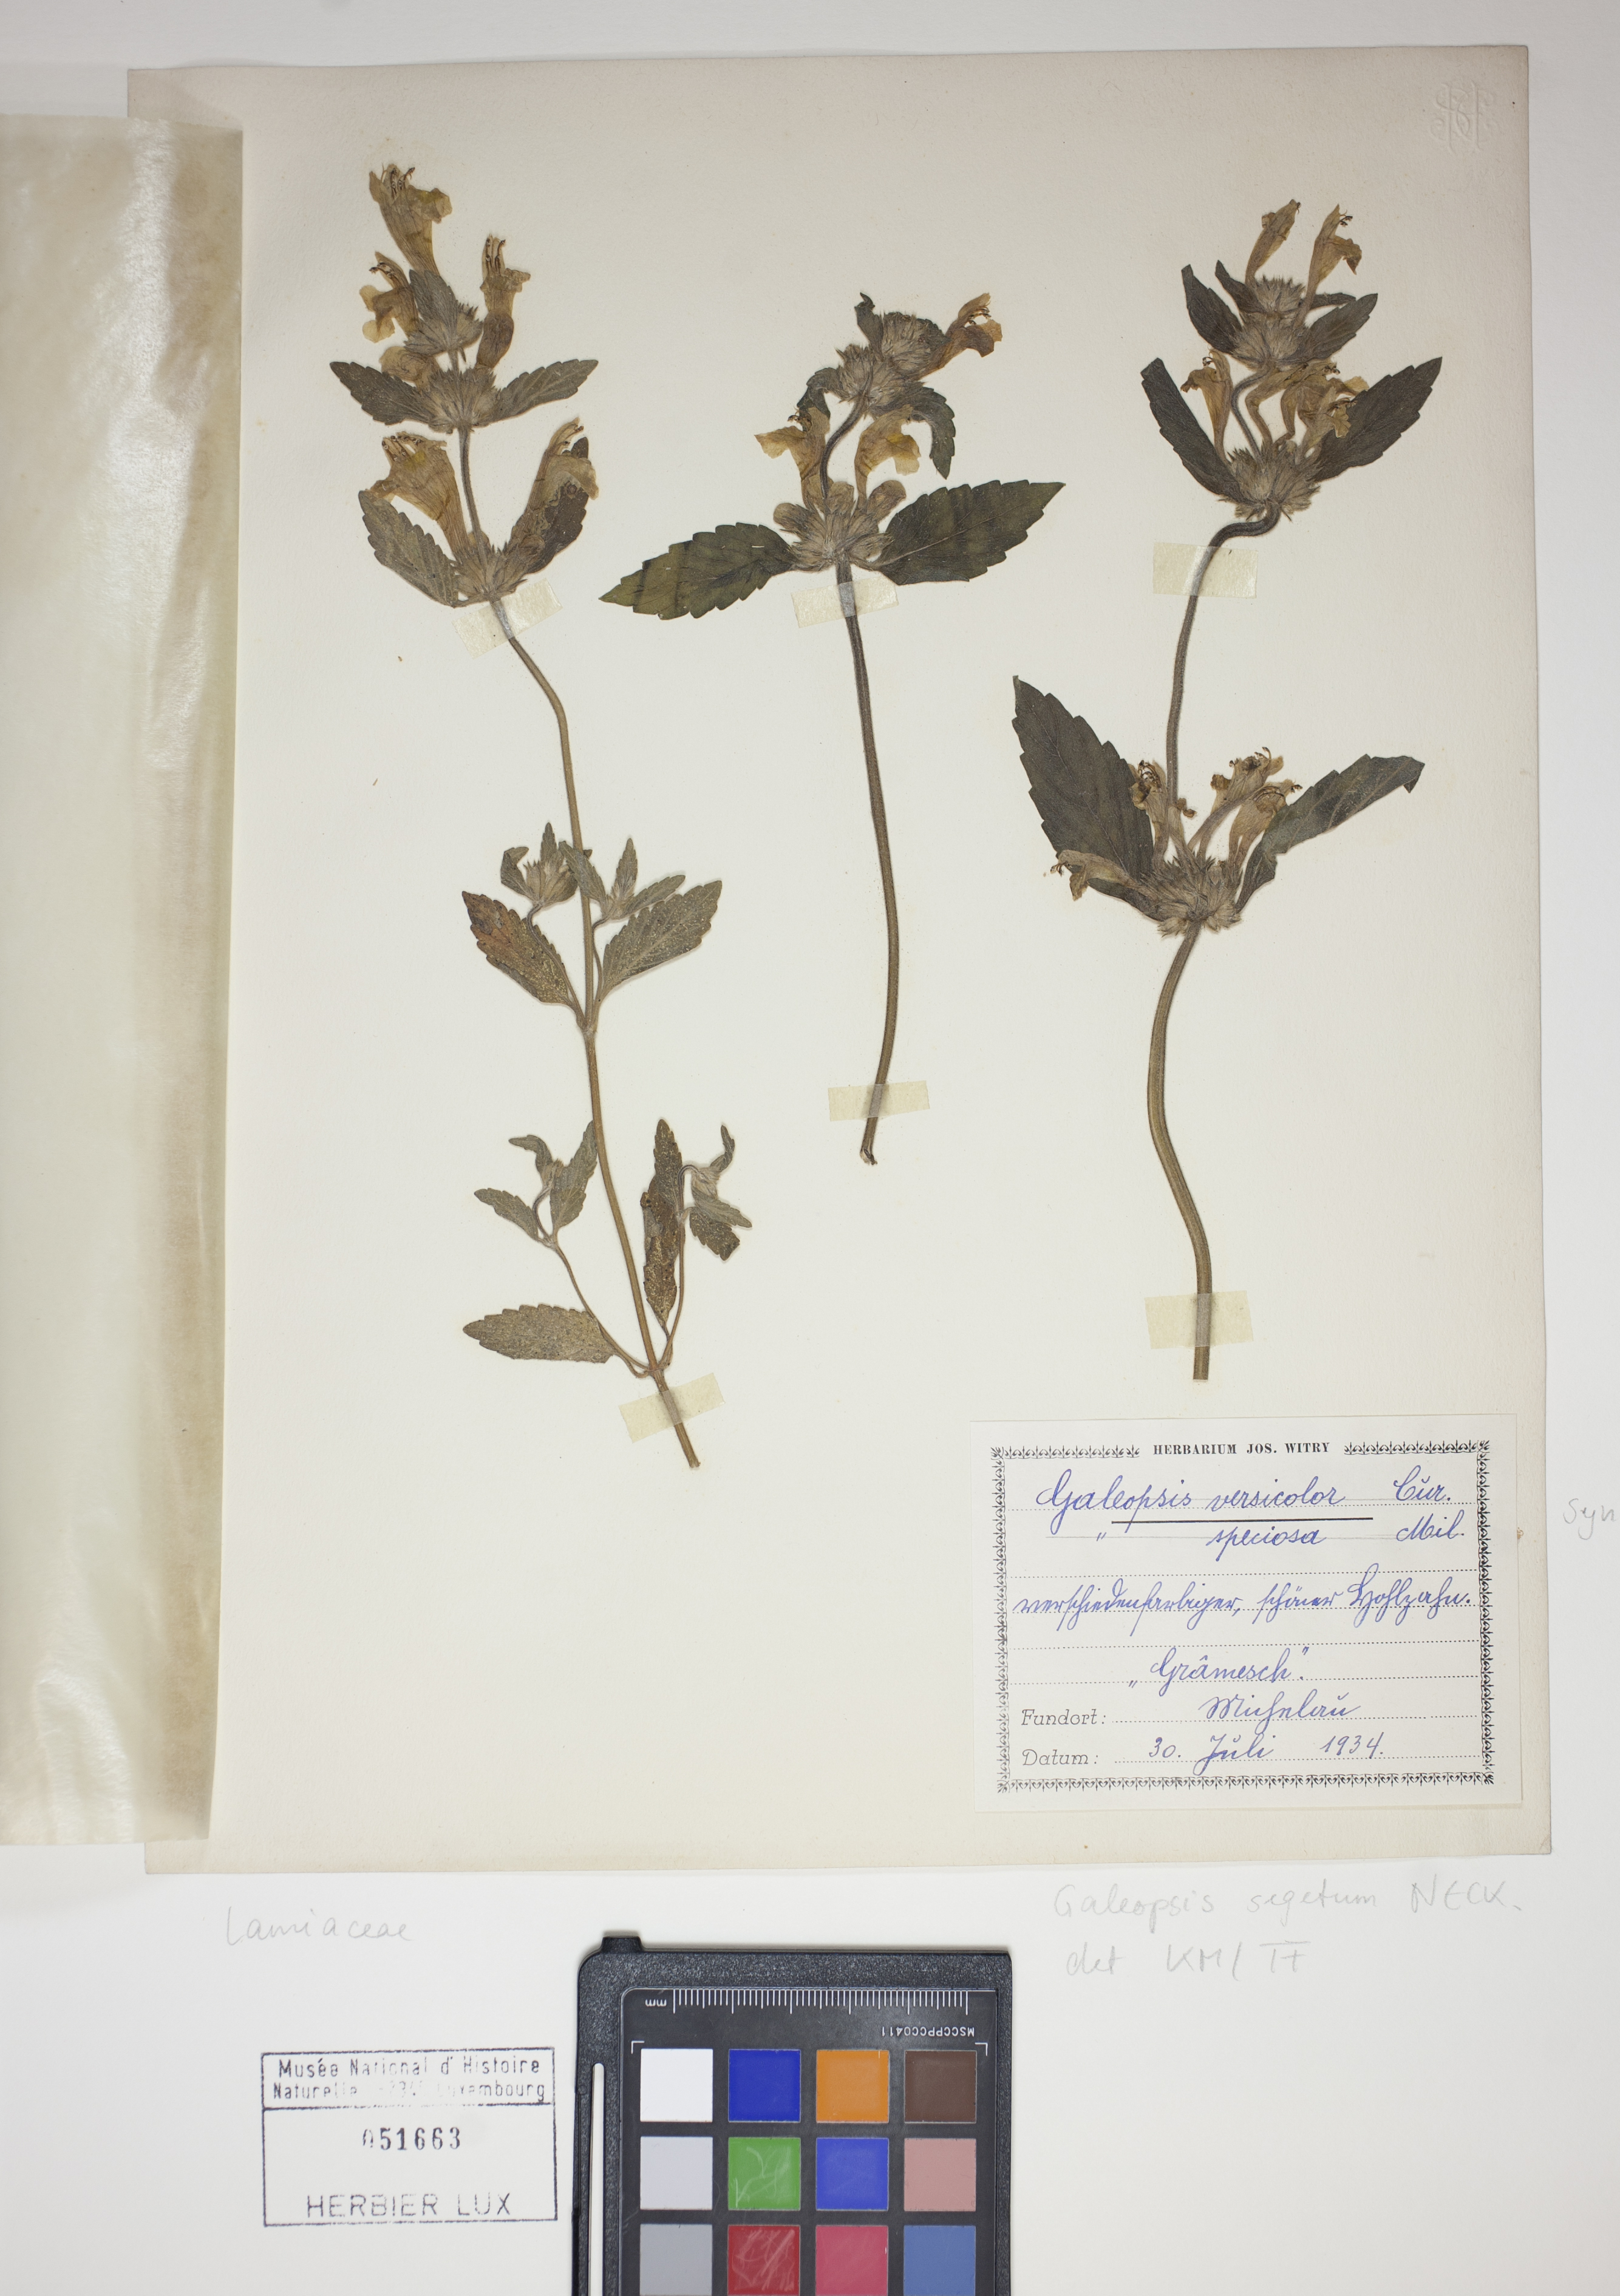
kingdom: Plantae
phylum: Tracheophyta
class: Magnoliopsida
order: Lamiales
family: Lamiaceae
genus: Galeopsis
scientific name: Galeopsis segetum
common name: Downy hemp-nettle
